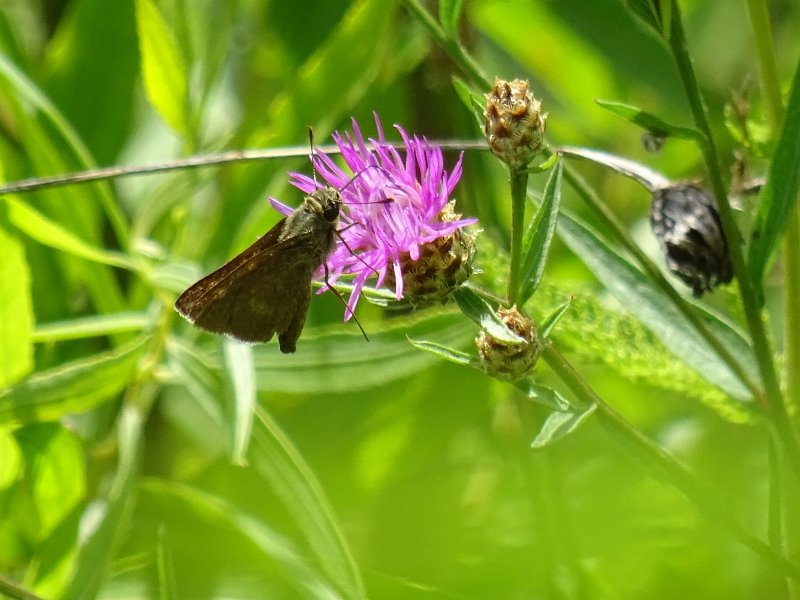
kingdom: Animalia
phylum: Arthropoda
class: Insecta
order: Lepidoptera
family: Hesperiidae
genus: Polites
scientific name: Polites
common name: Crossline Skipper
